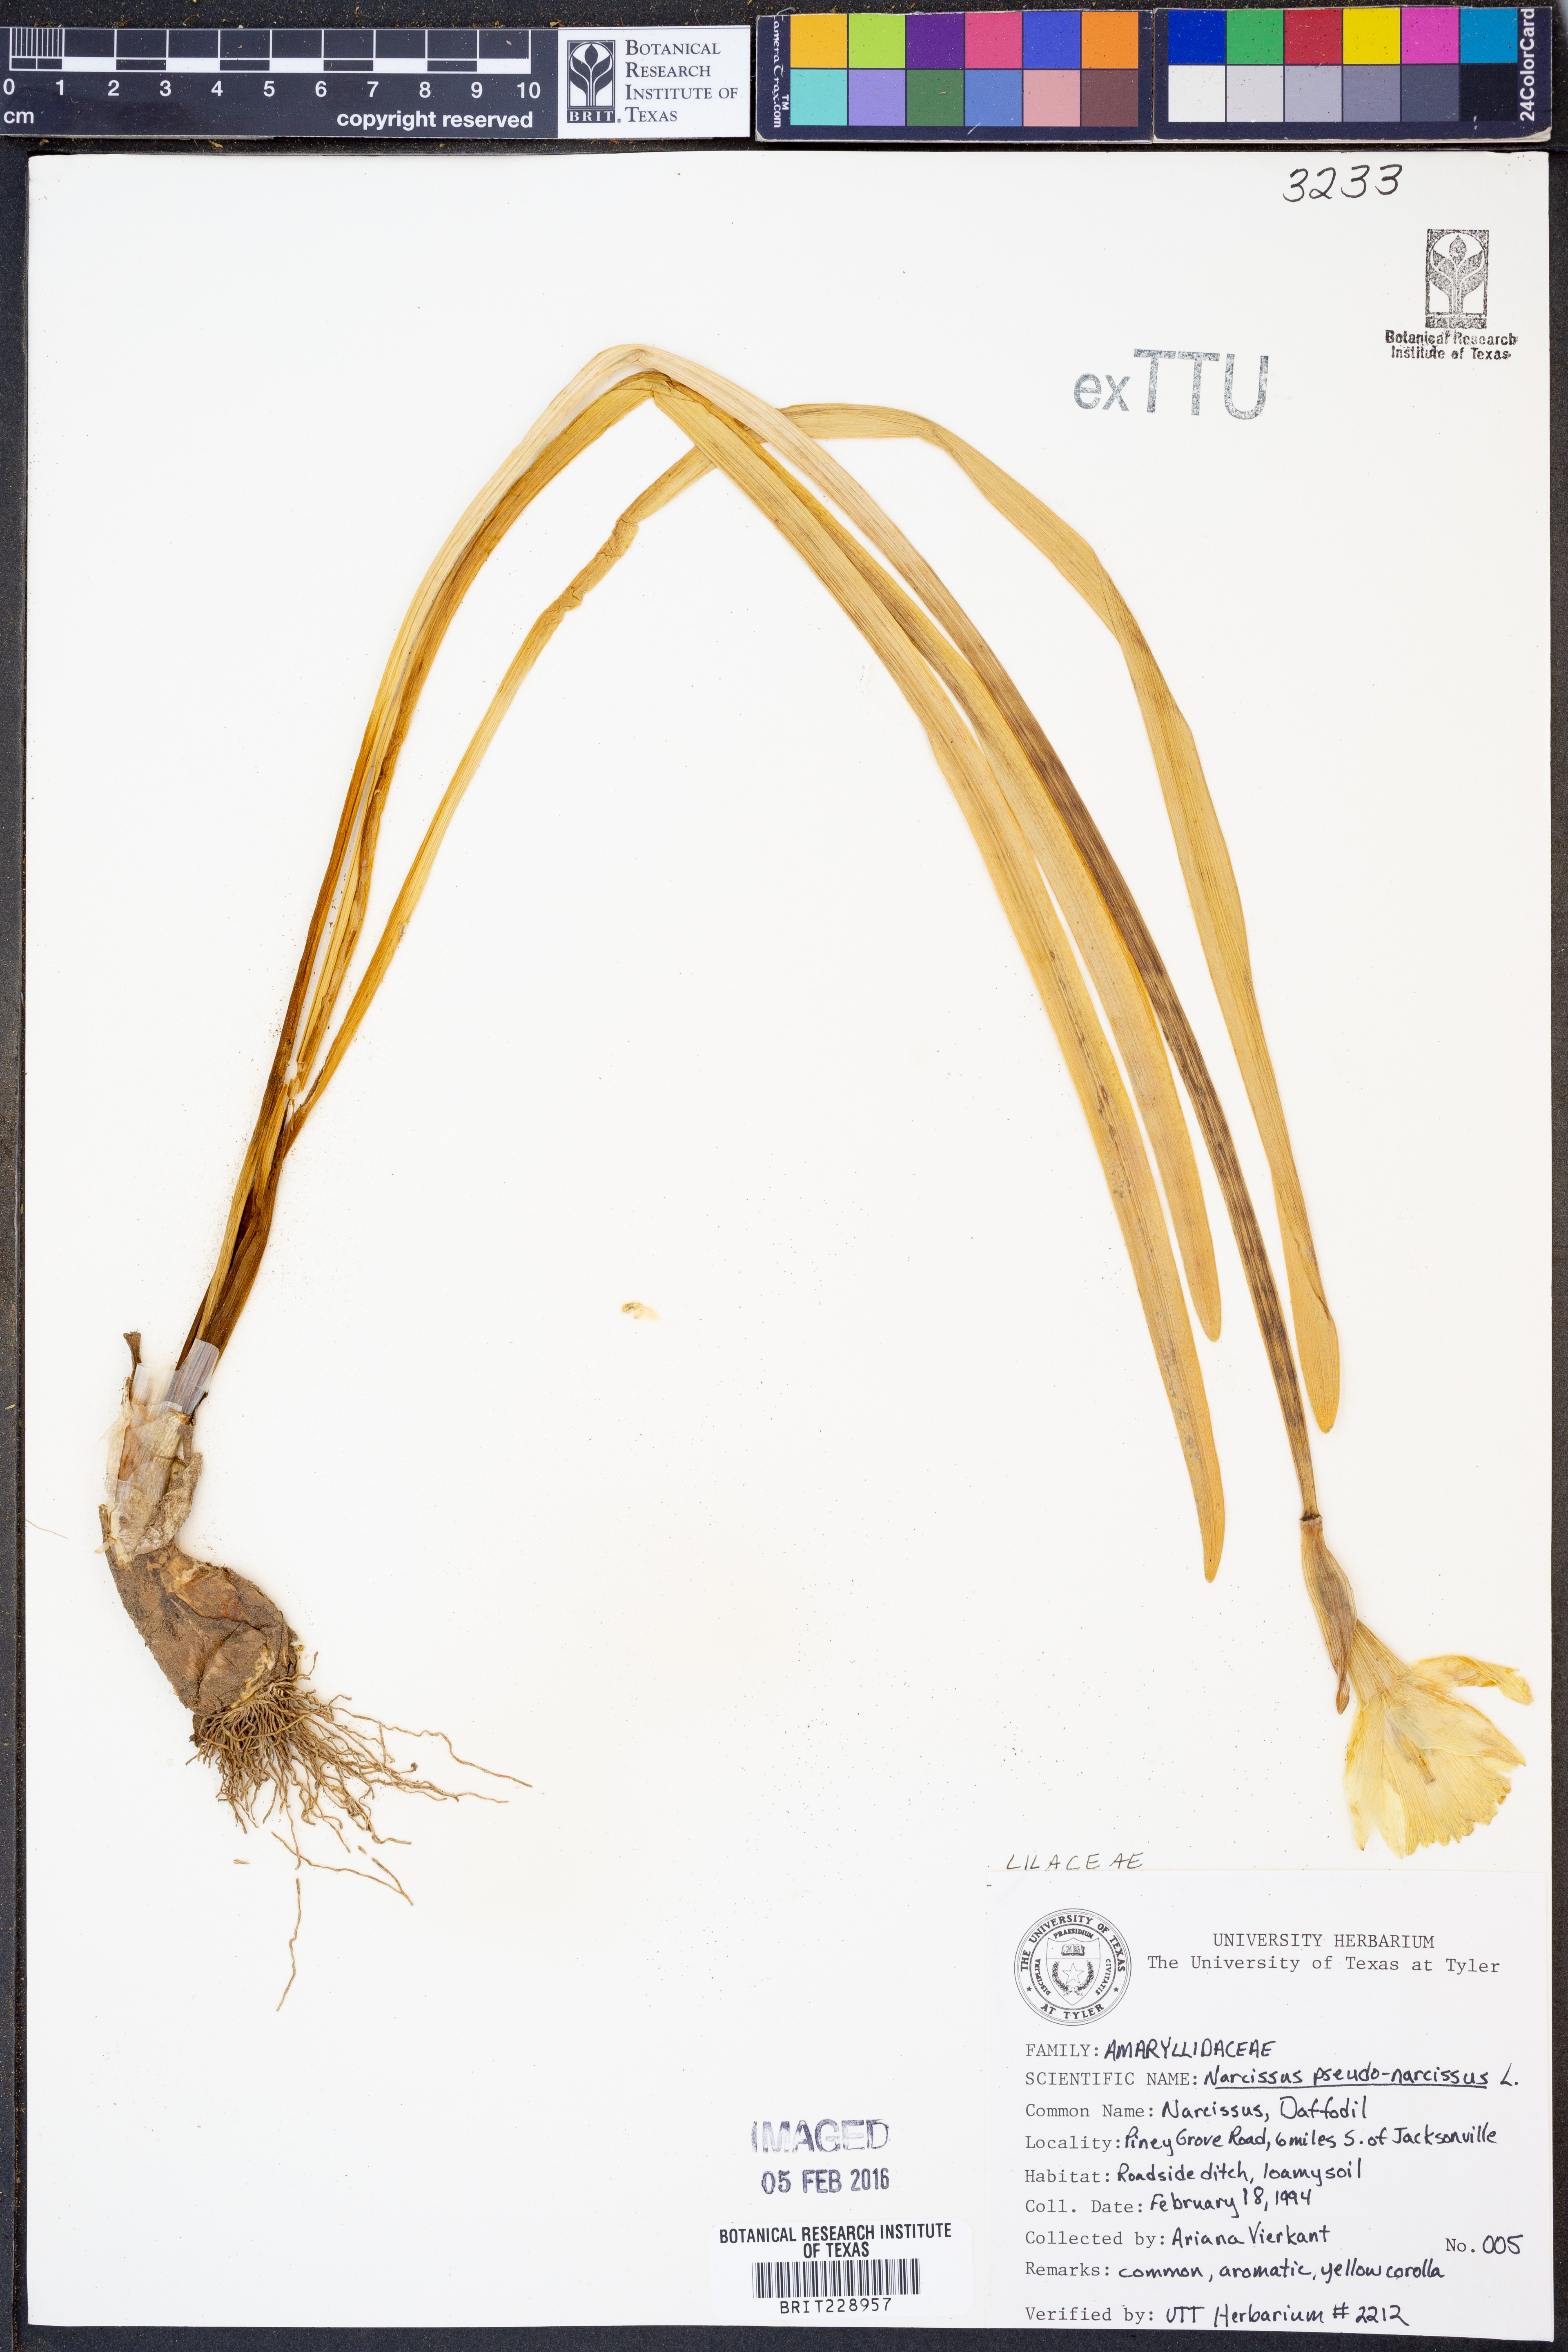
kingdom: Plantae
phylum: Tracheophyta
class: Liliopsida
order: Asparagales
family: Amaryllidaceae
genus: Narcissus
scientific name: Narcissus pseudonarcissus
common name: Daffodil
